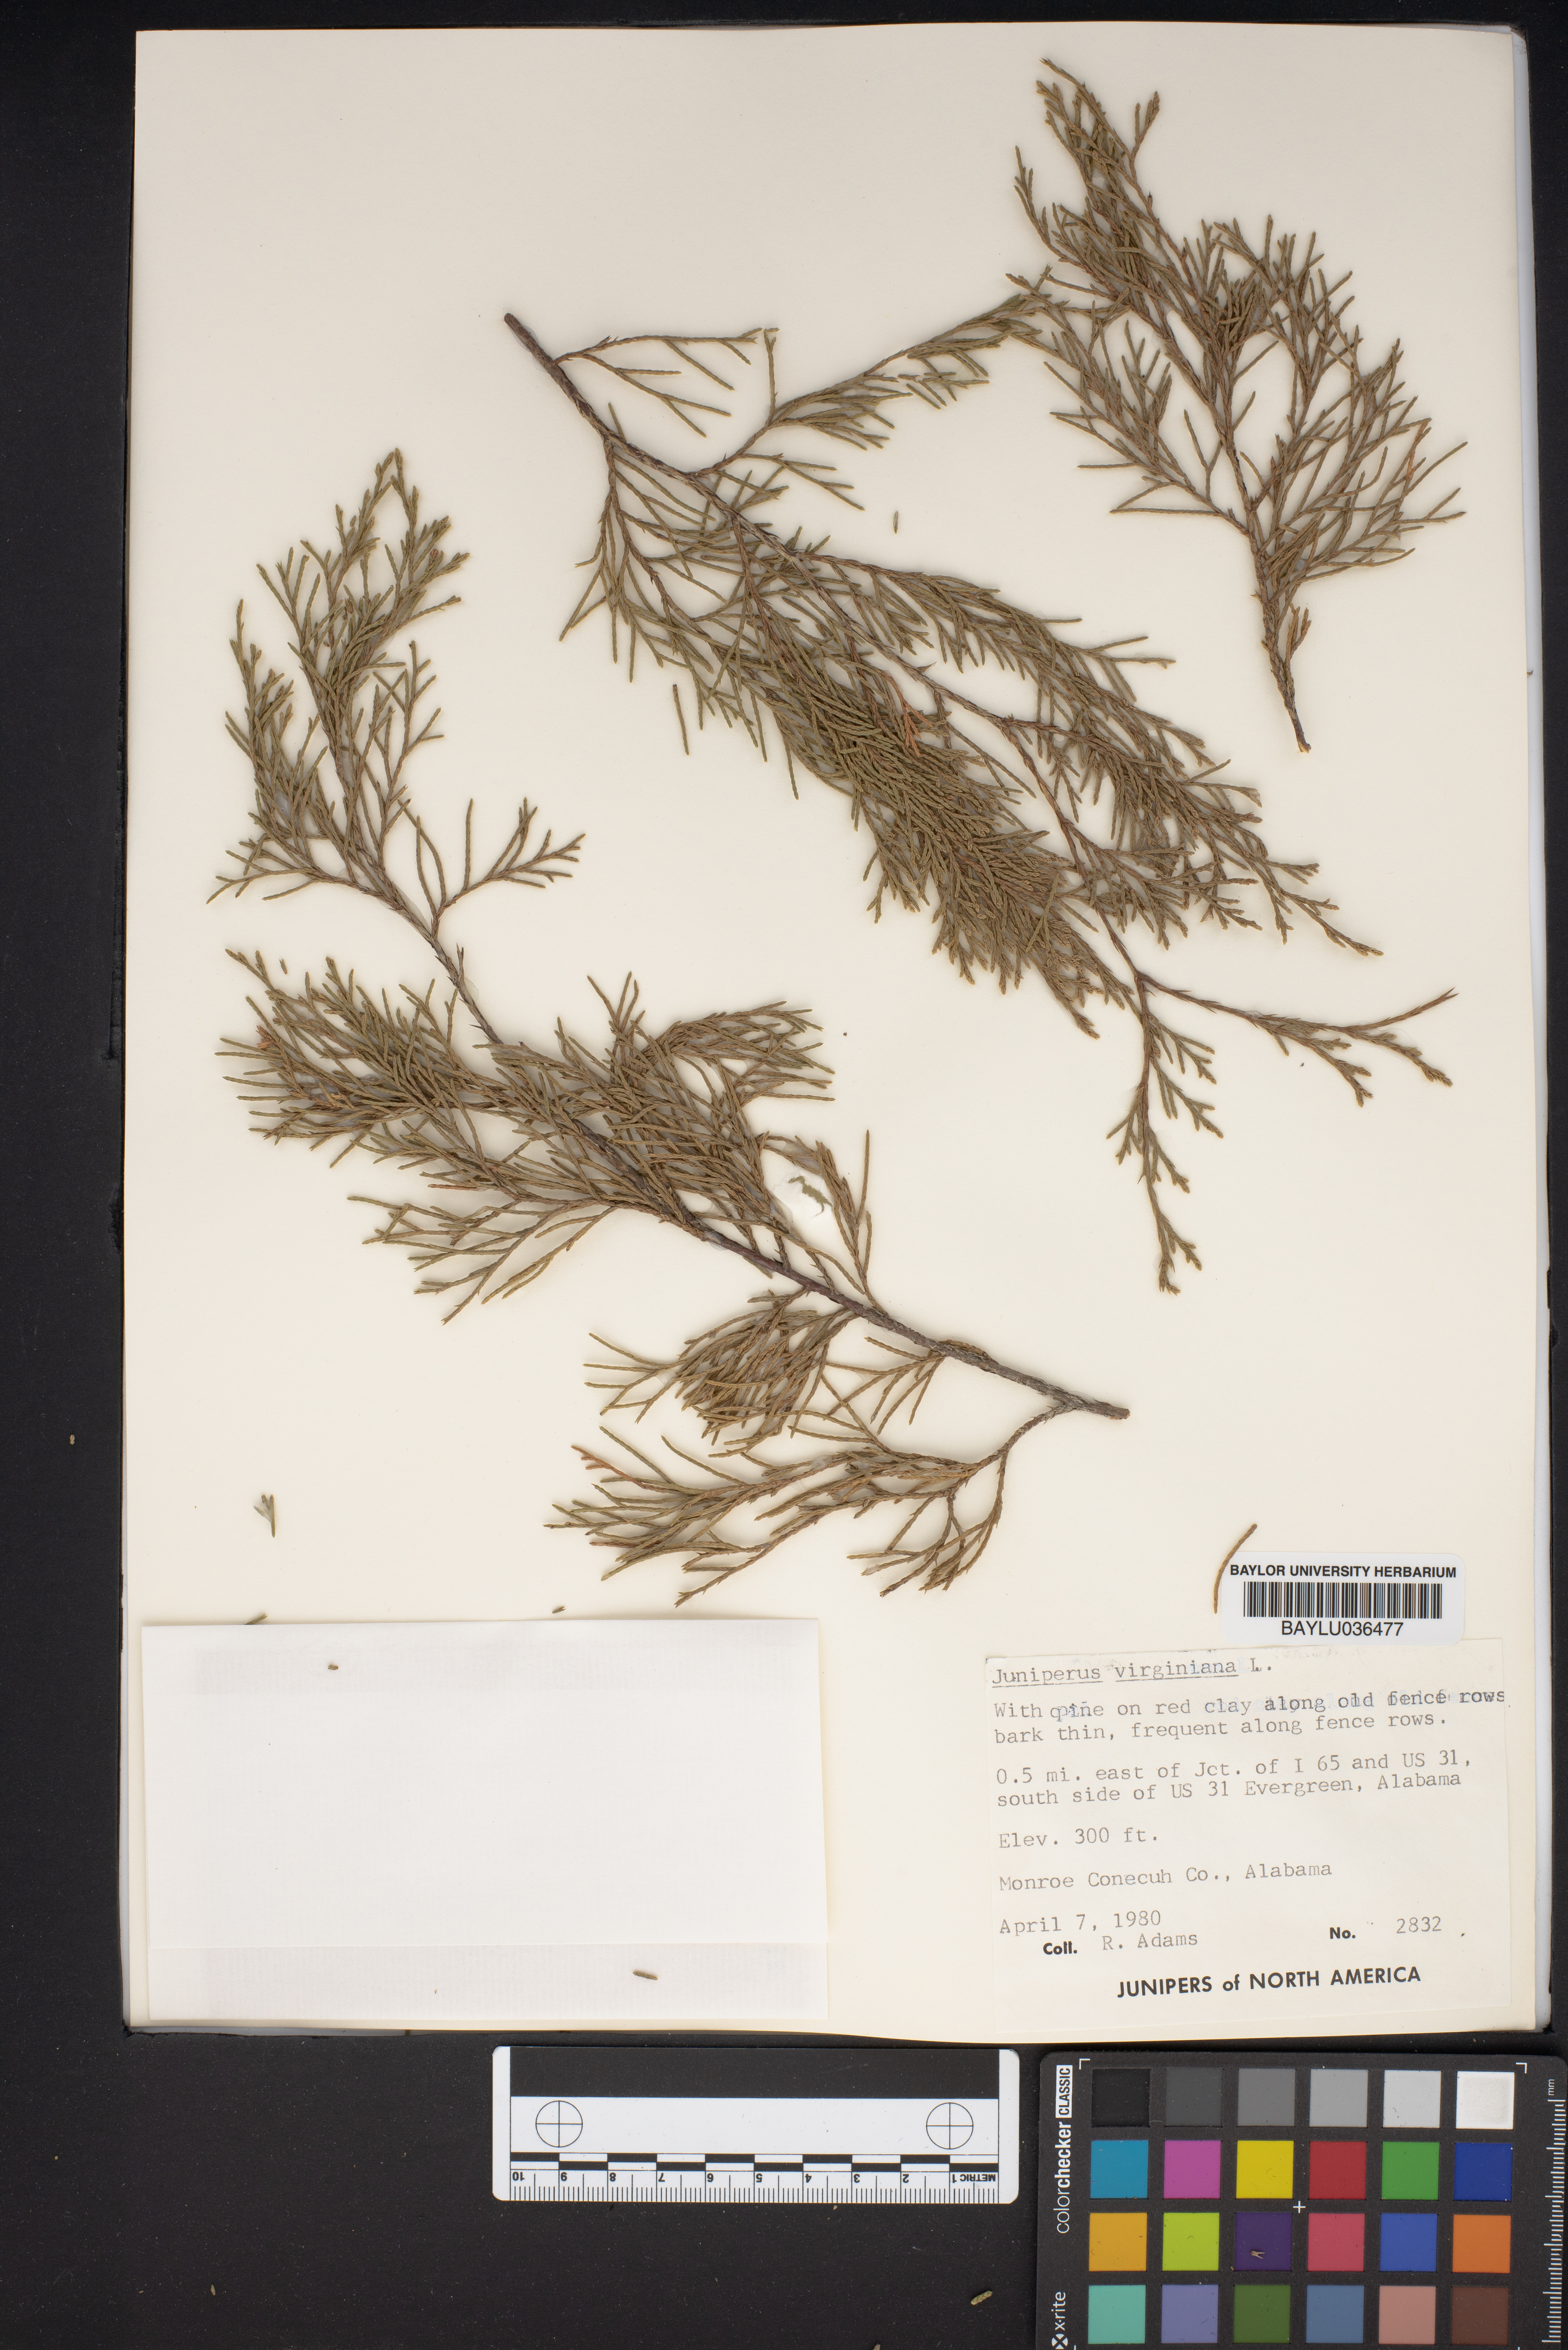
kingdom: Plantae
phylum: Tracheophyta
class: Pinopsida
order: Pinales
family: Cupressaceae
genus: Juniperus
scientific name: Juniperus virginiana
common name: Red juniper
